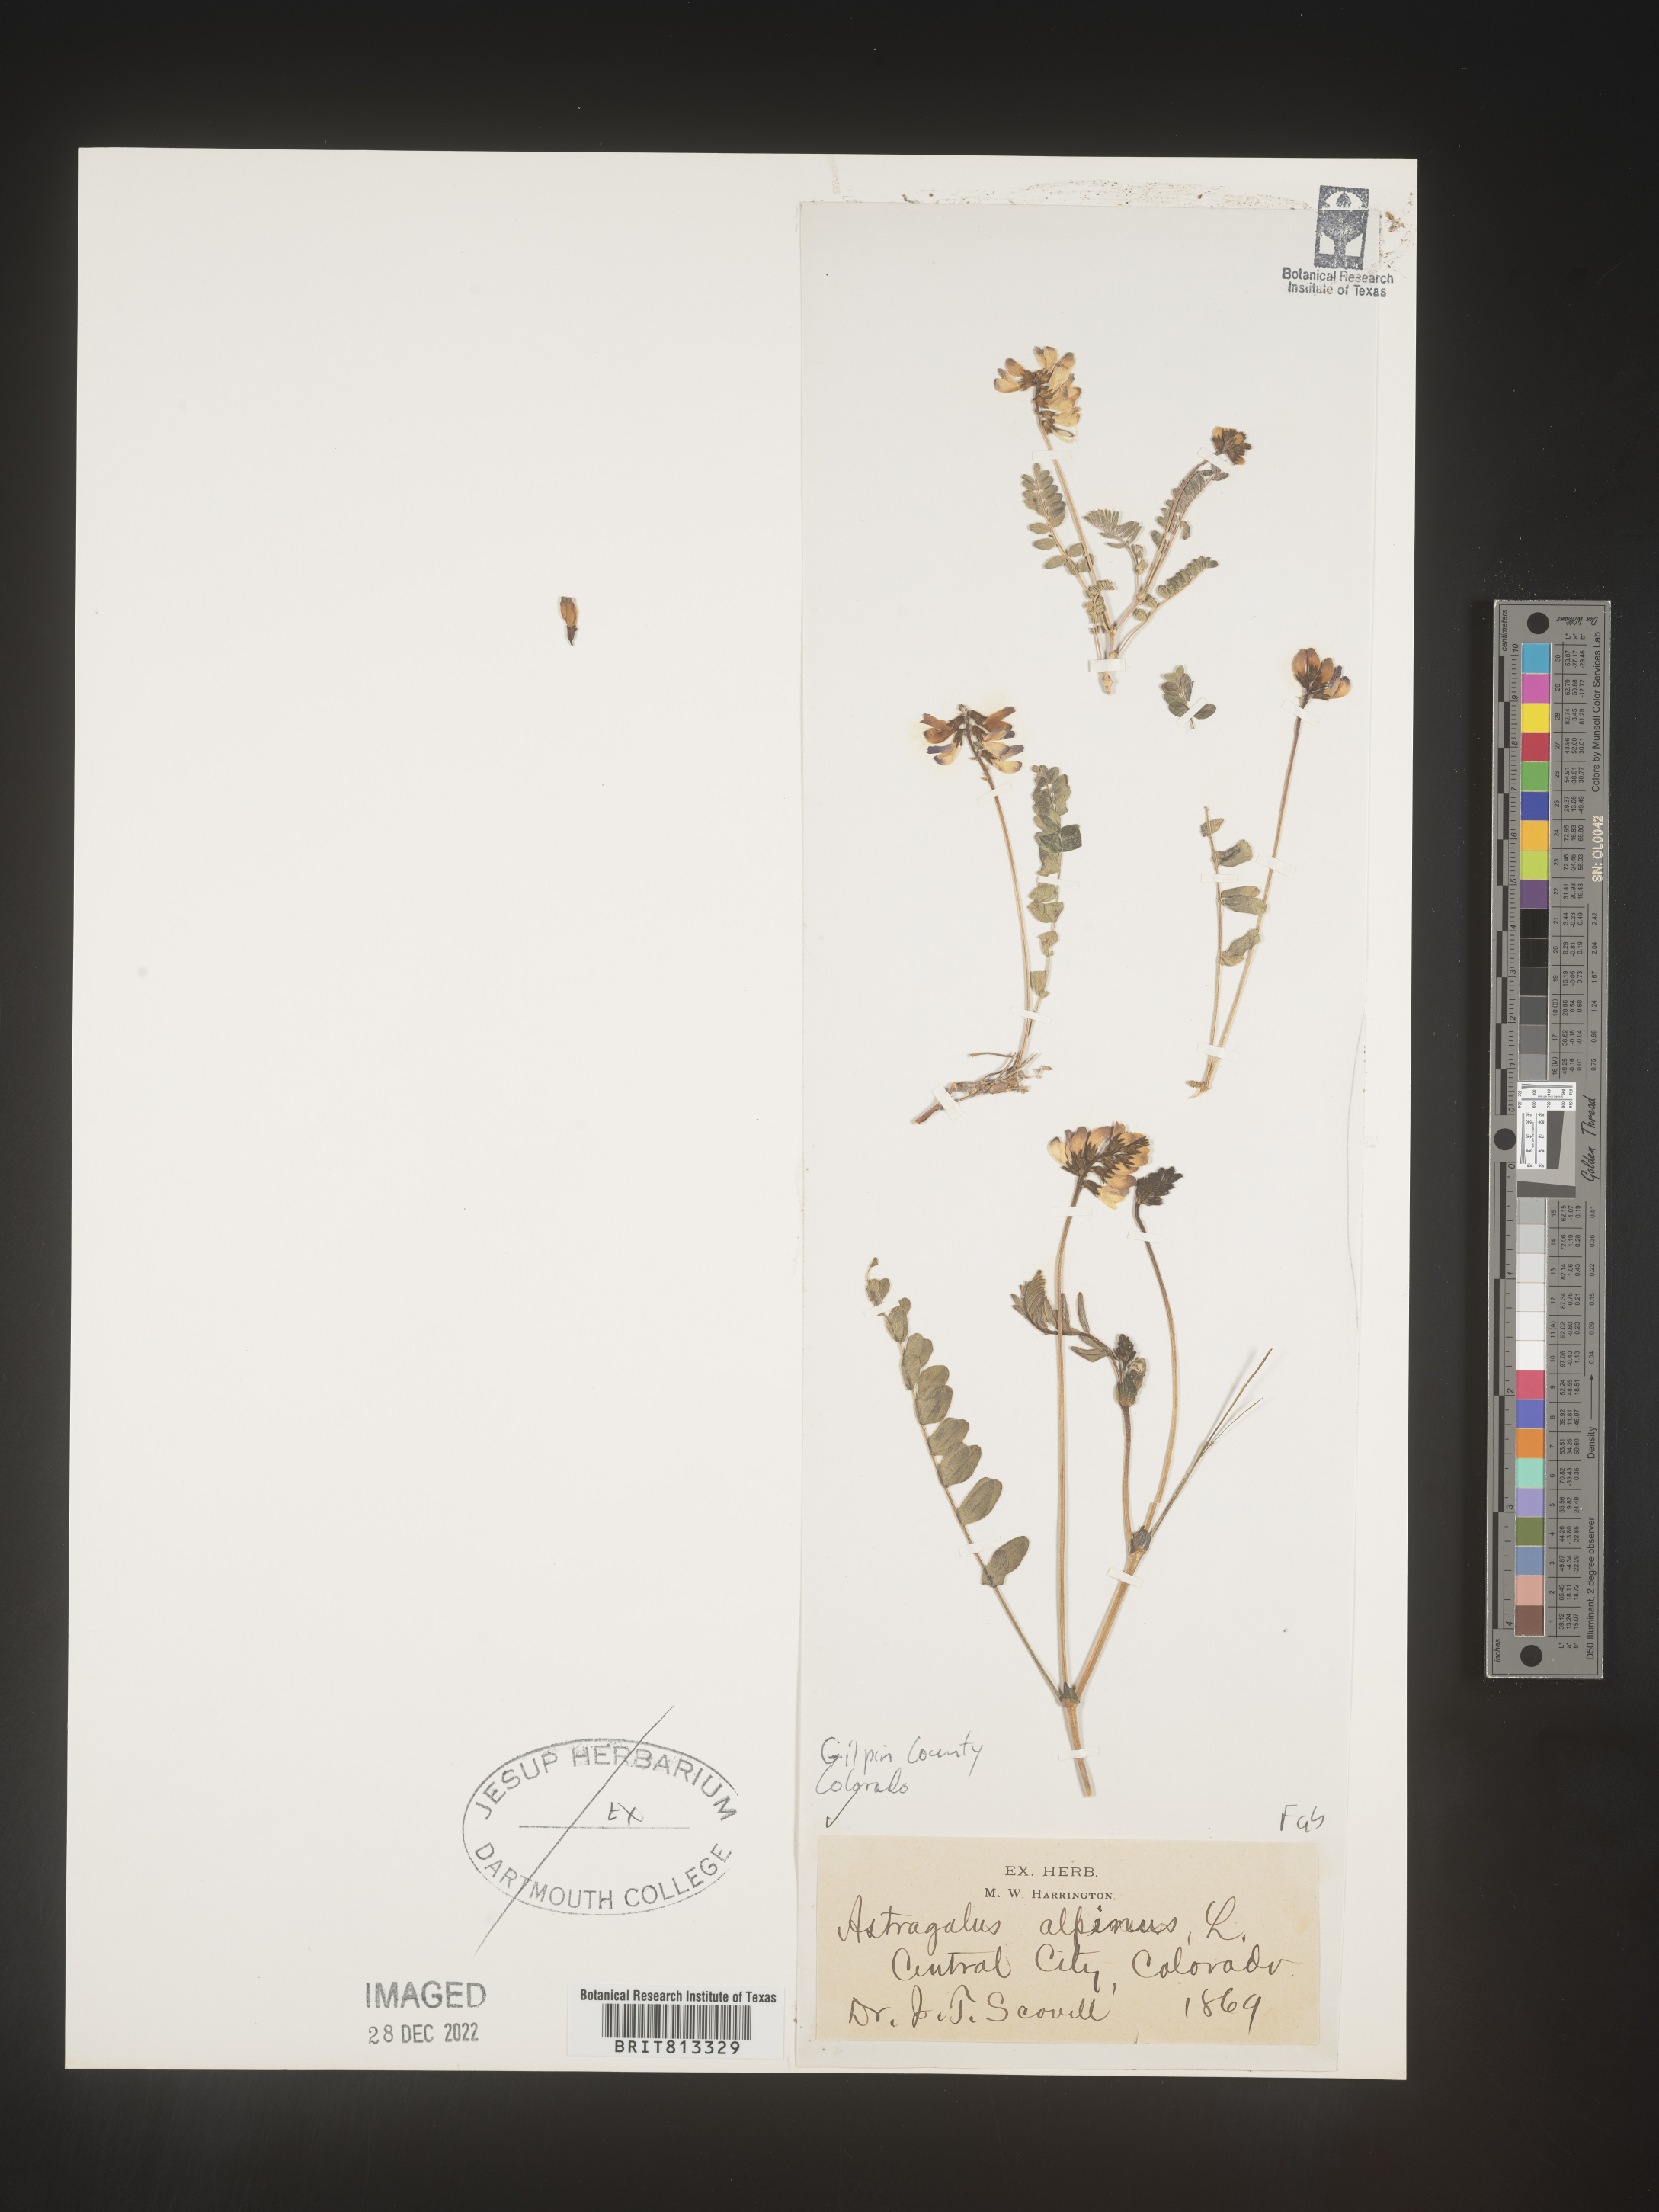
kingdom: Plantae
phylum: Tracheophyta
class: Magnoliopsida
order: Fabales
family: Fabaceae
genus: Astragalus
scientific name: Astragalus alpinus
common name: Alpine milk-vetch
